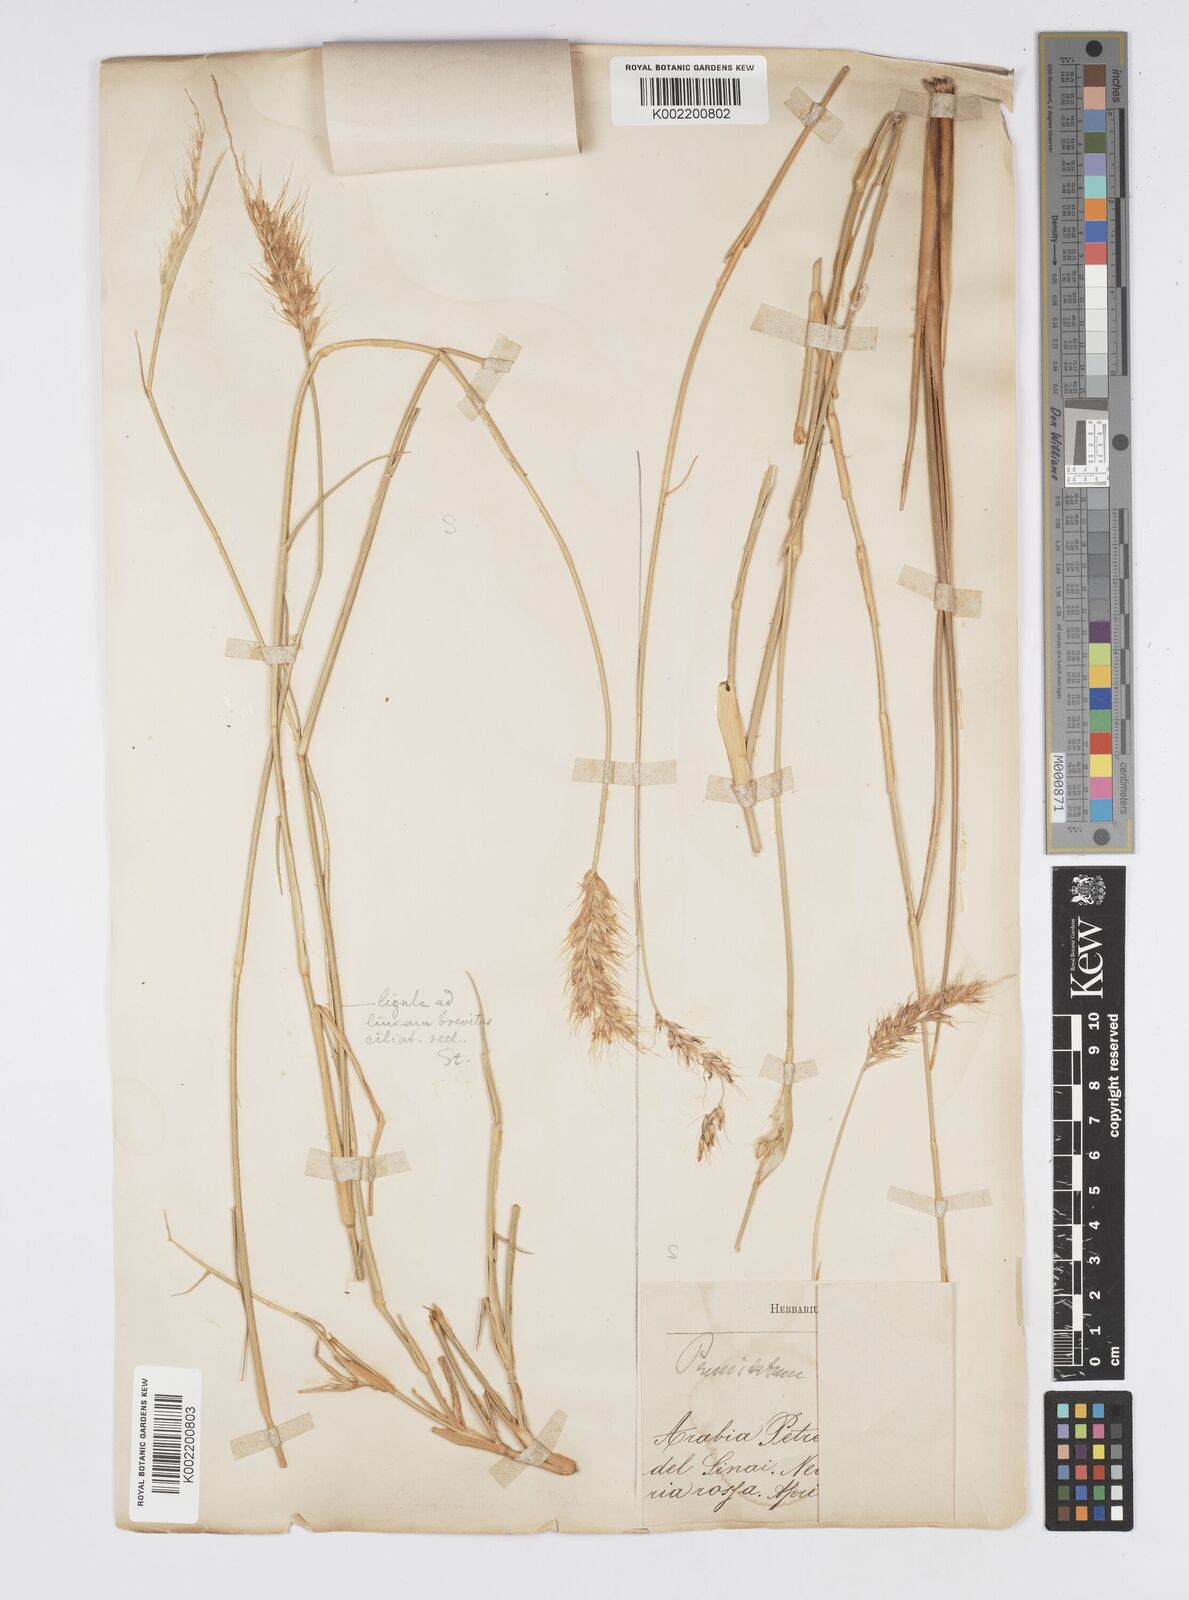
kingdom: Plantae
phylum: Tracheophyta
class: Liliopsida
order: Poales
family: Poaceae
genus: Cenchrus
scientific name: Cenchrus divisus
